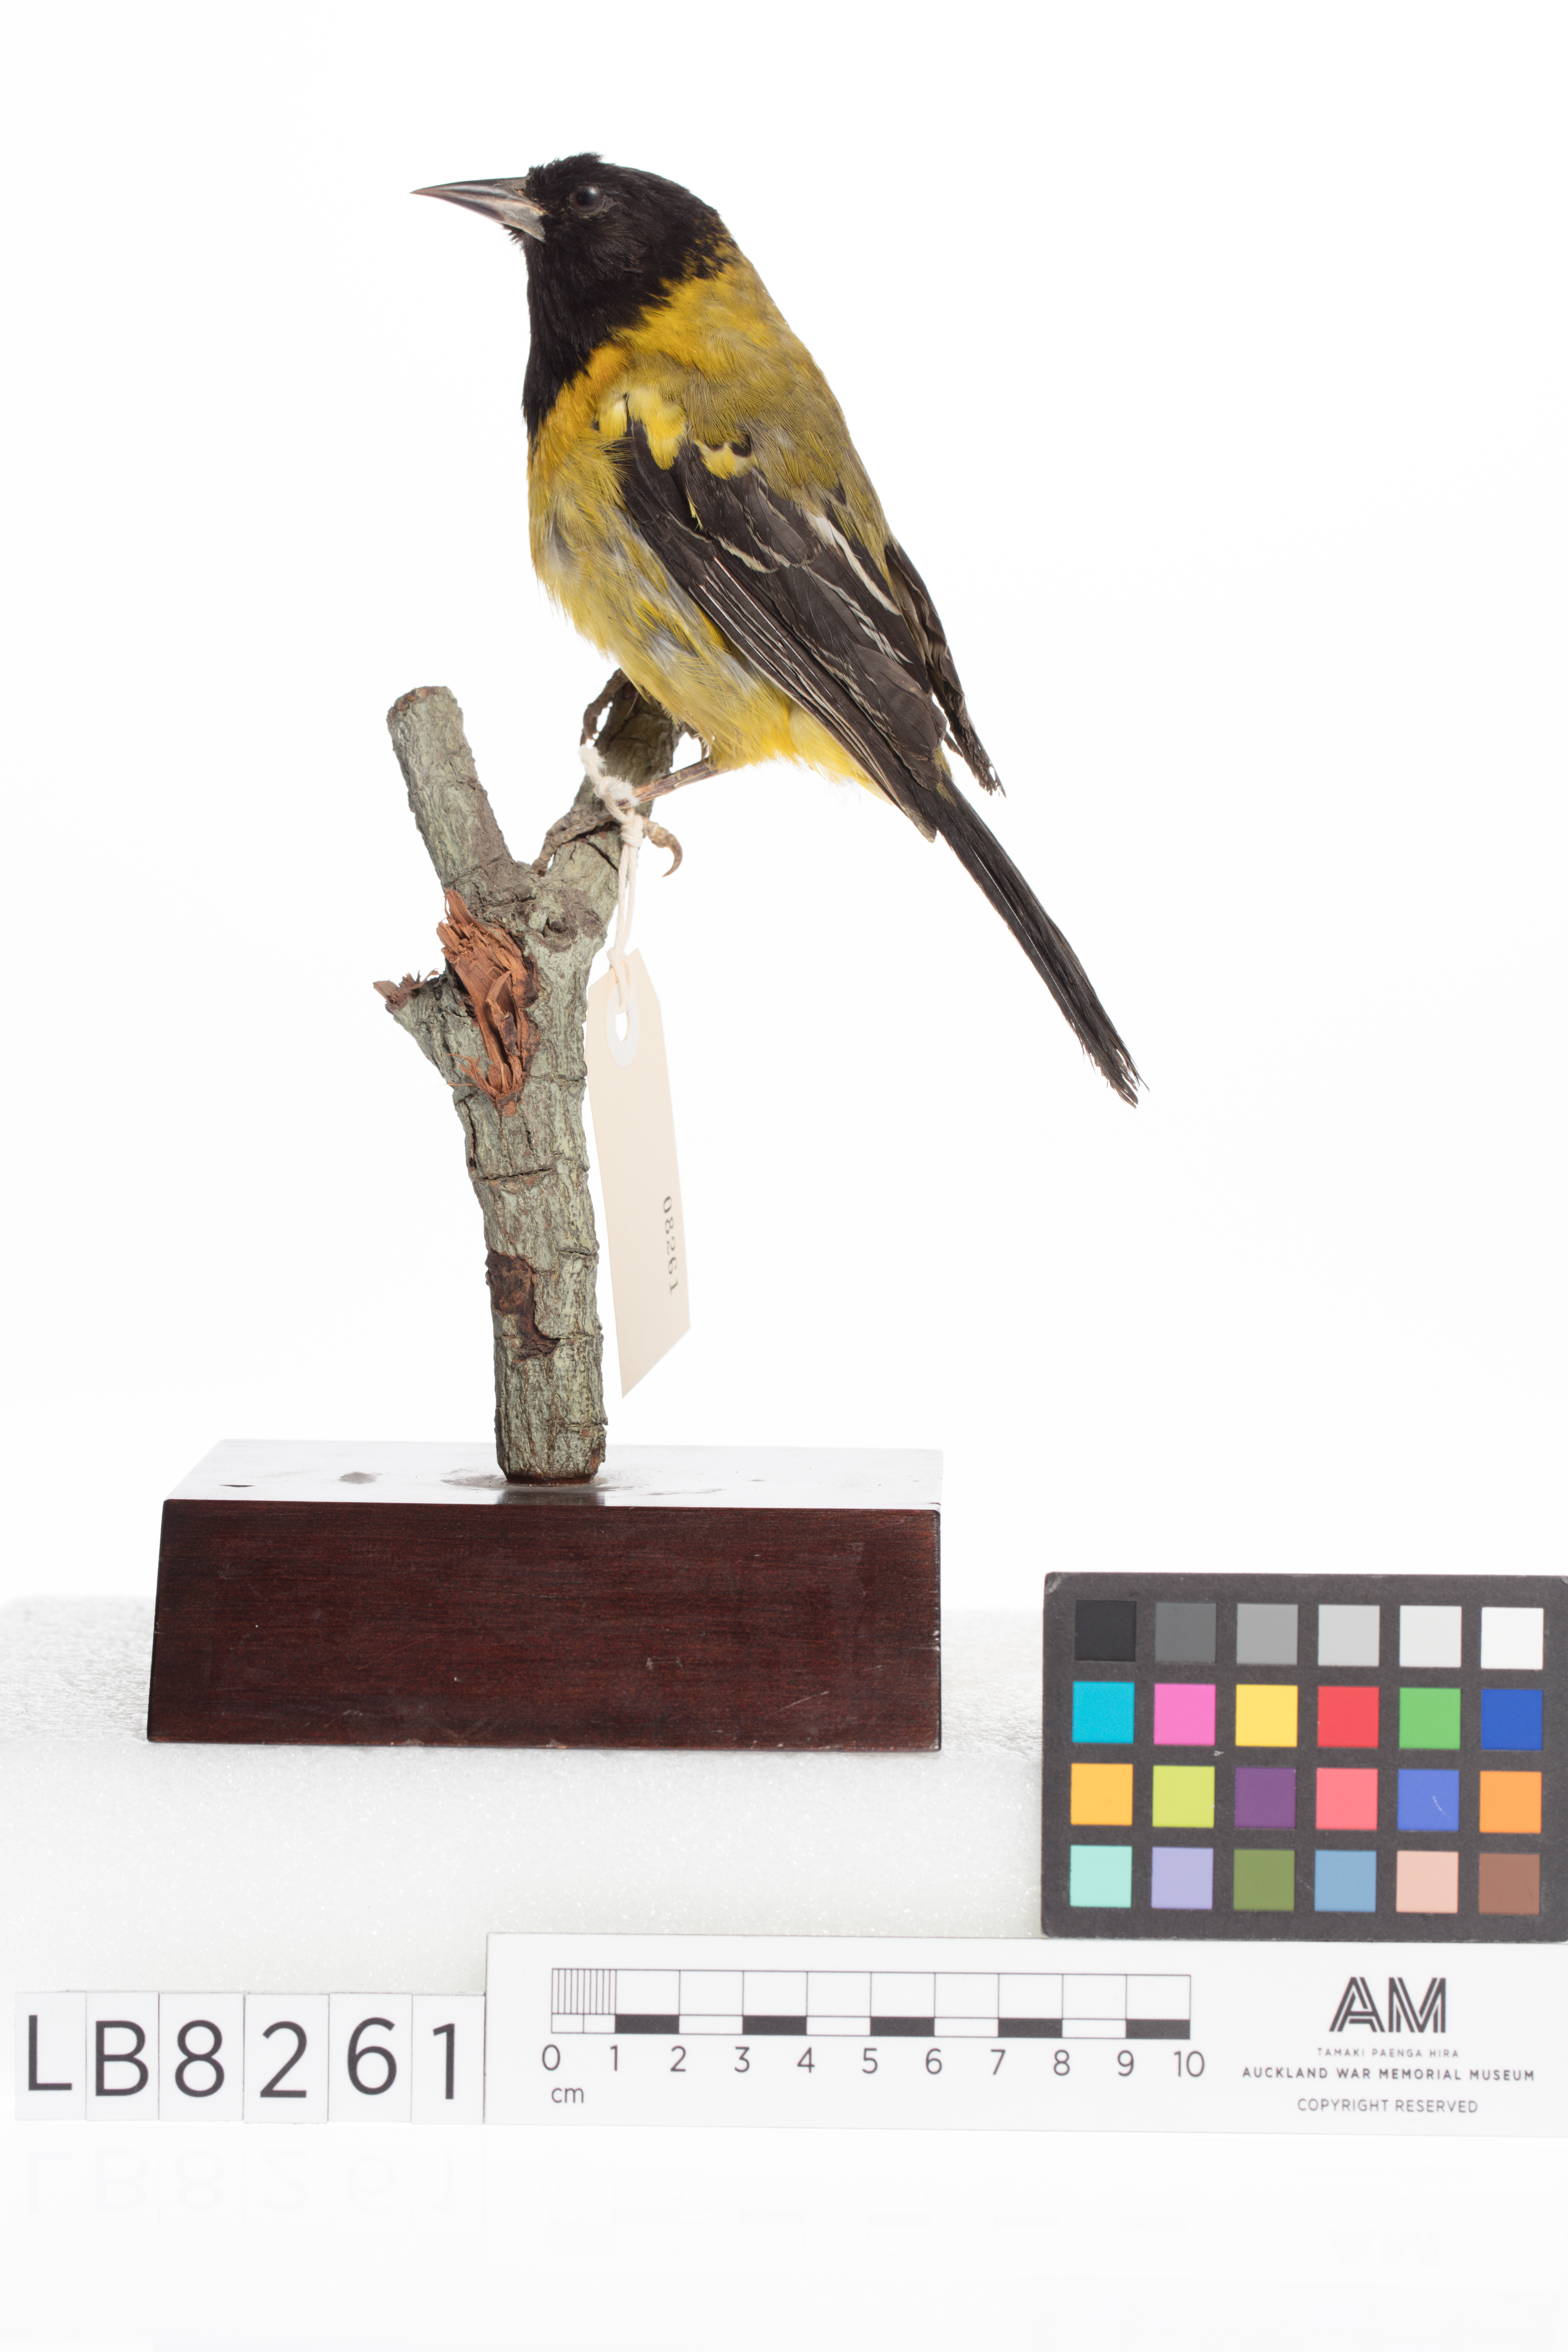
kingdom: Animalia
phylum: Chordata
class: Aves
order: Passeriformes
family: Icteridae
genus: Icterus
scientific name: Icterus graduacauda
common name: Audubon's oriole
